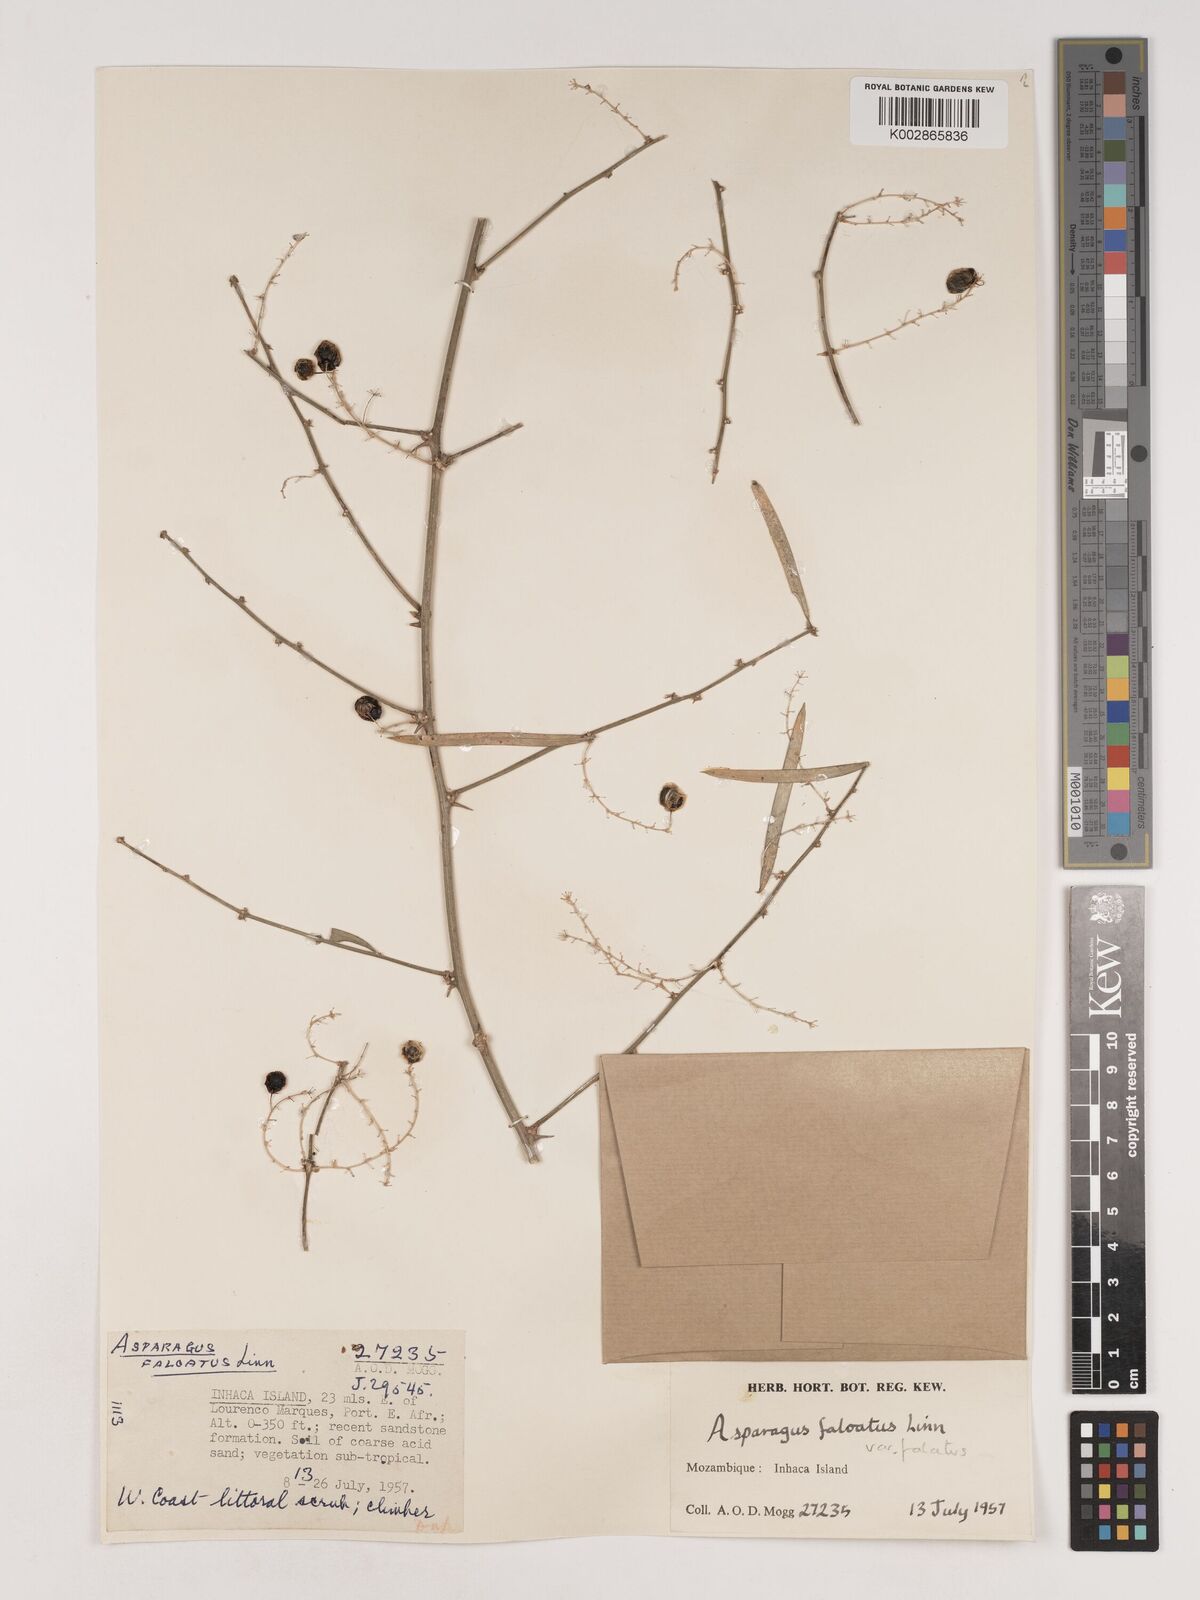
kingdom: Plantae
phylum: Tracheophyta
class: Liliopsida
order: Asparagales
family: Asparagaceae
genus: Asparagus
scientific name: Asparagus falcatus
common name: Asparagus
